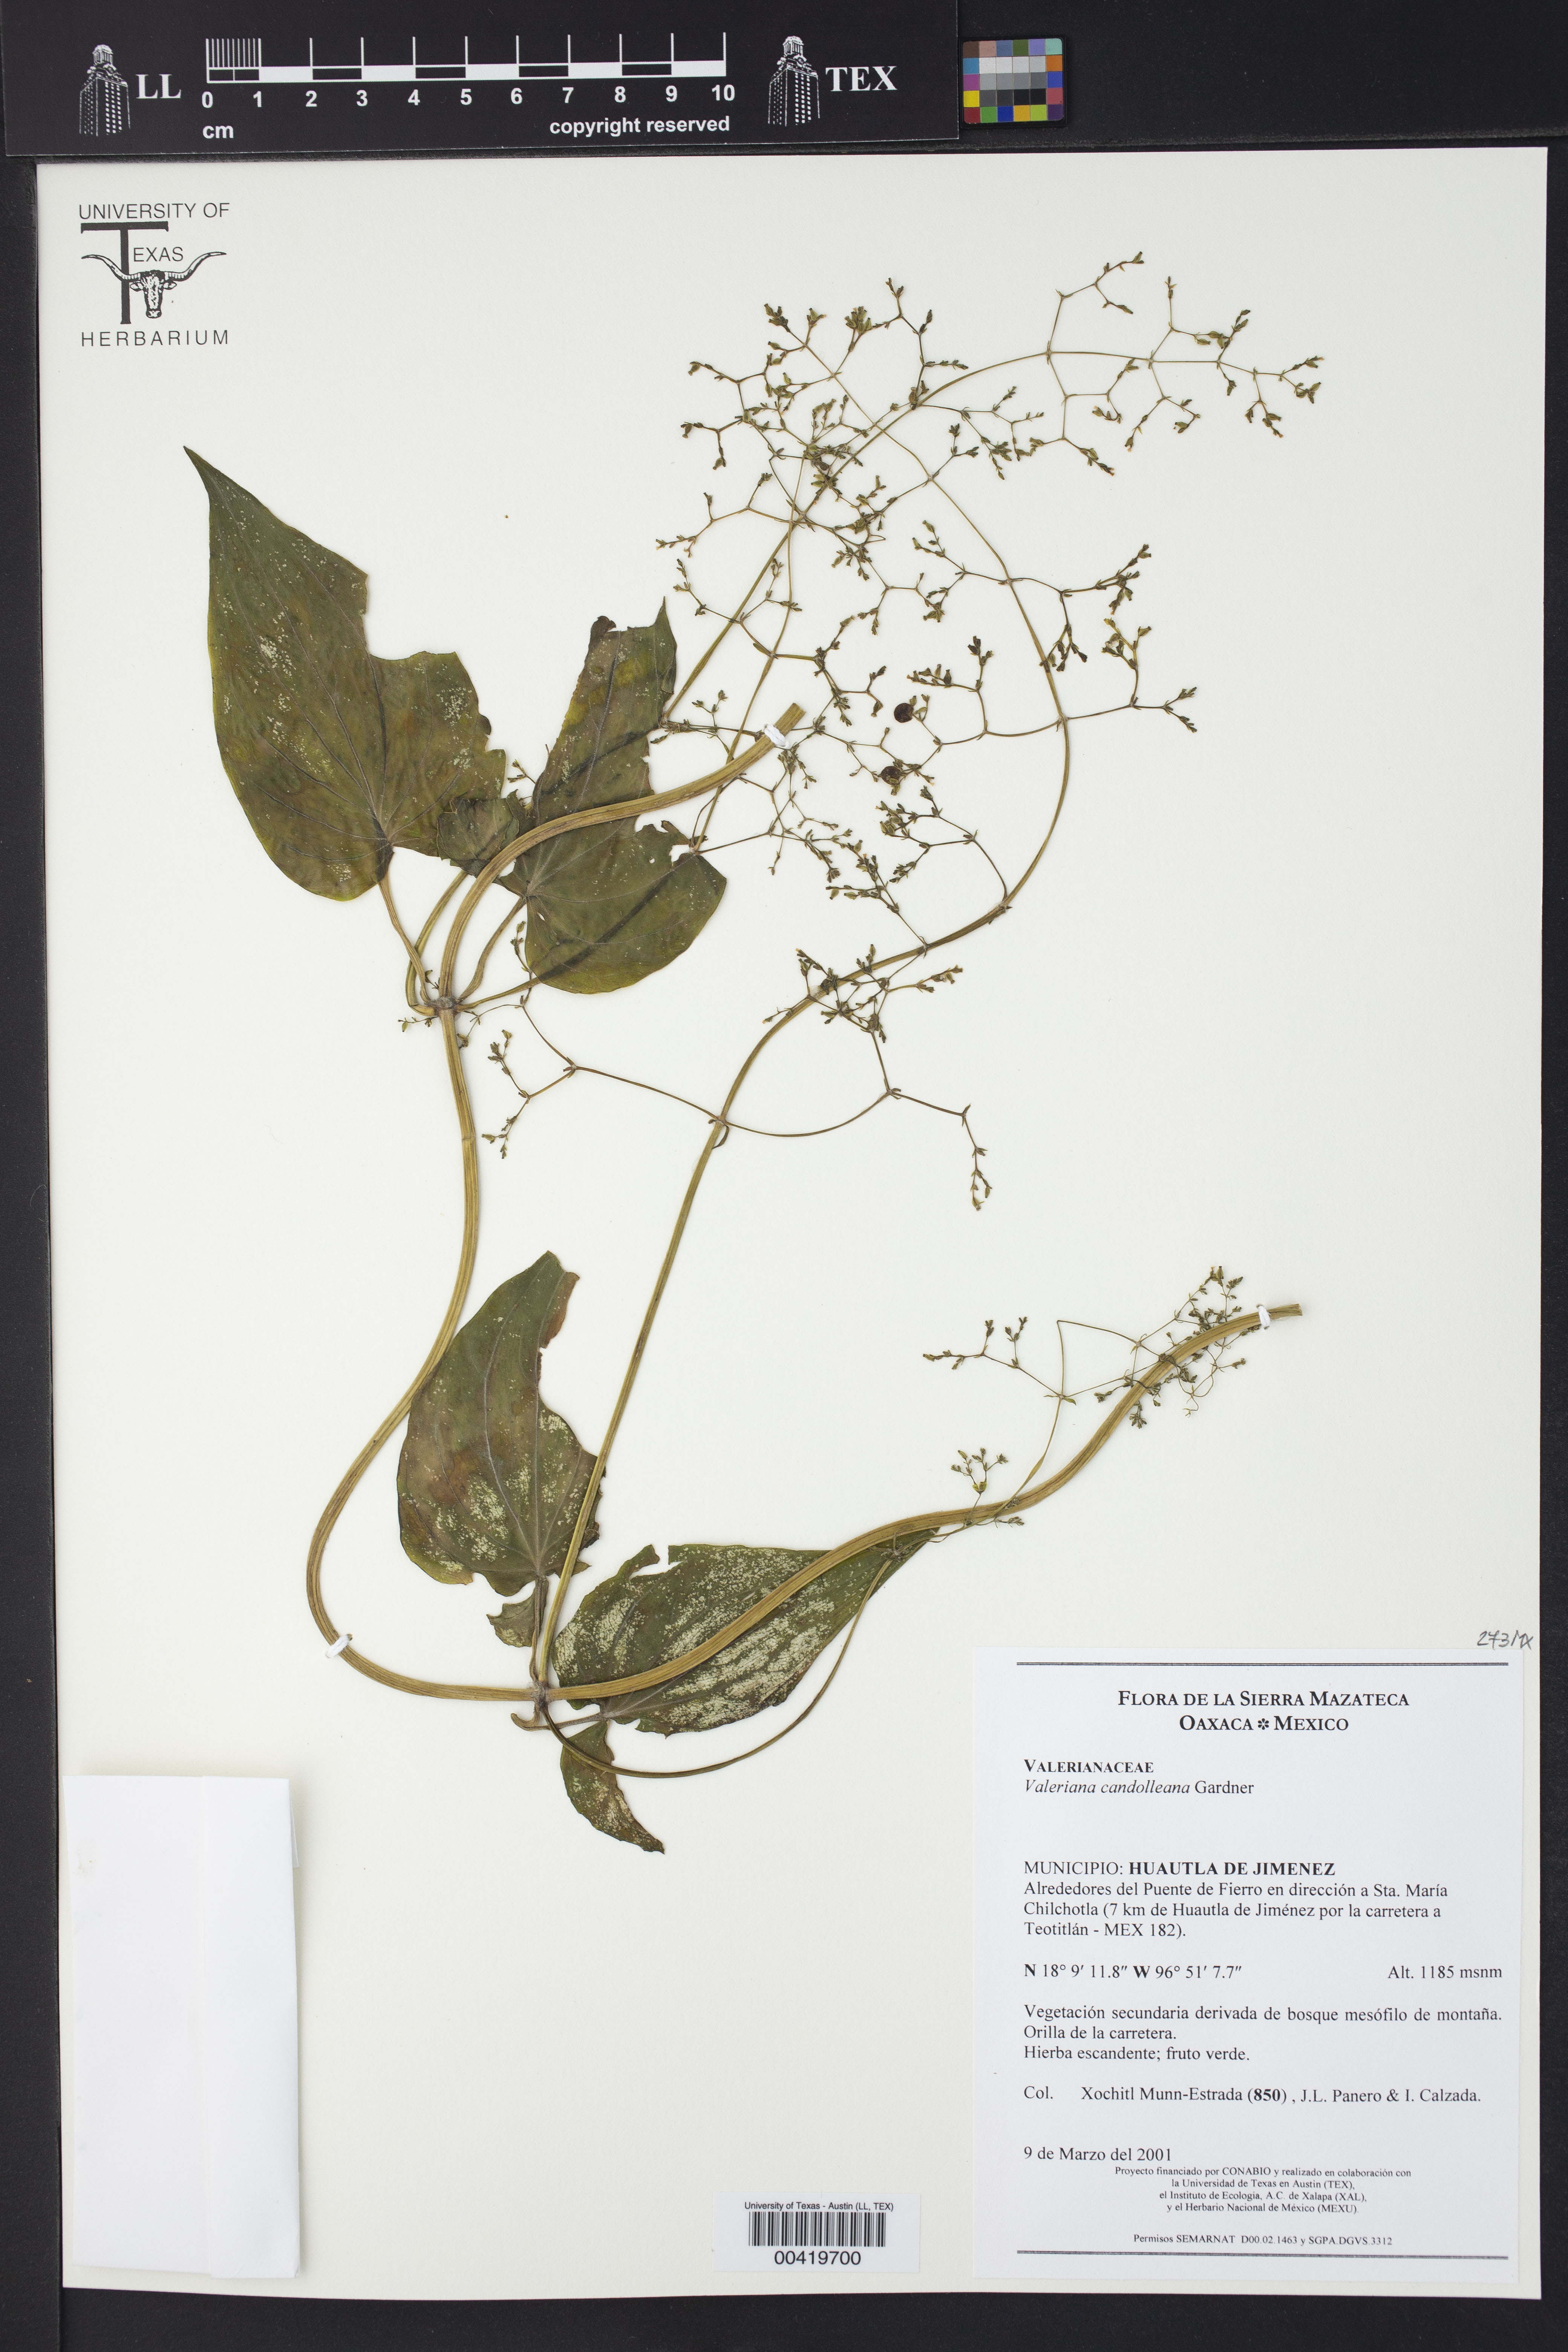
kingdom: Plantae
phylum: Tracheophyta
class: Magnoliopsida
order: Dipsacales
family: Caprifoliaceae
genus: Valeriana
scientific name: Valeriana candolleana
